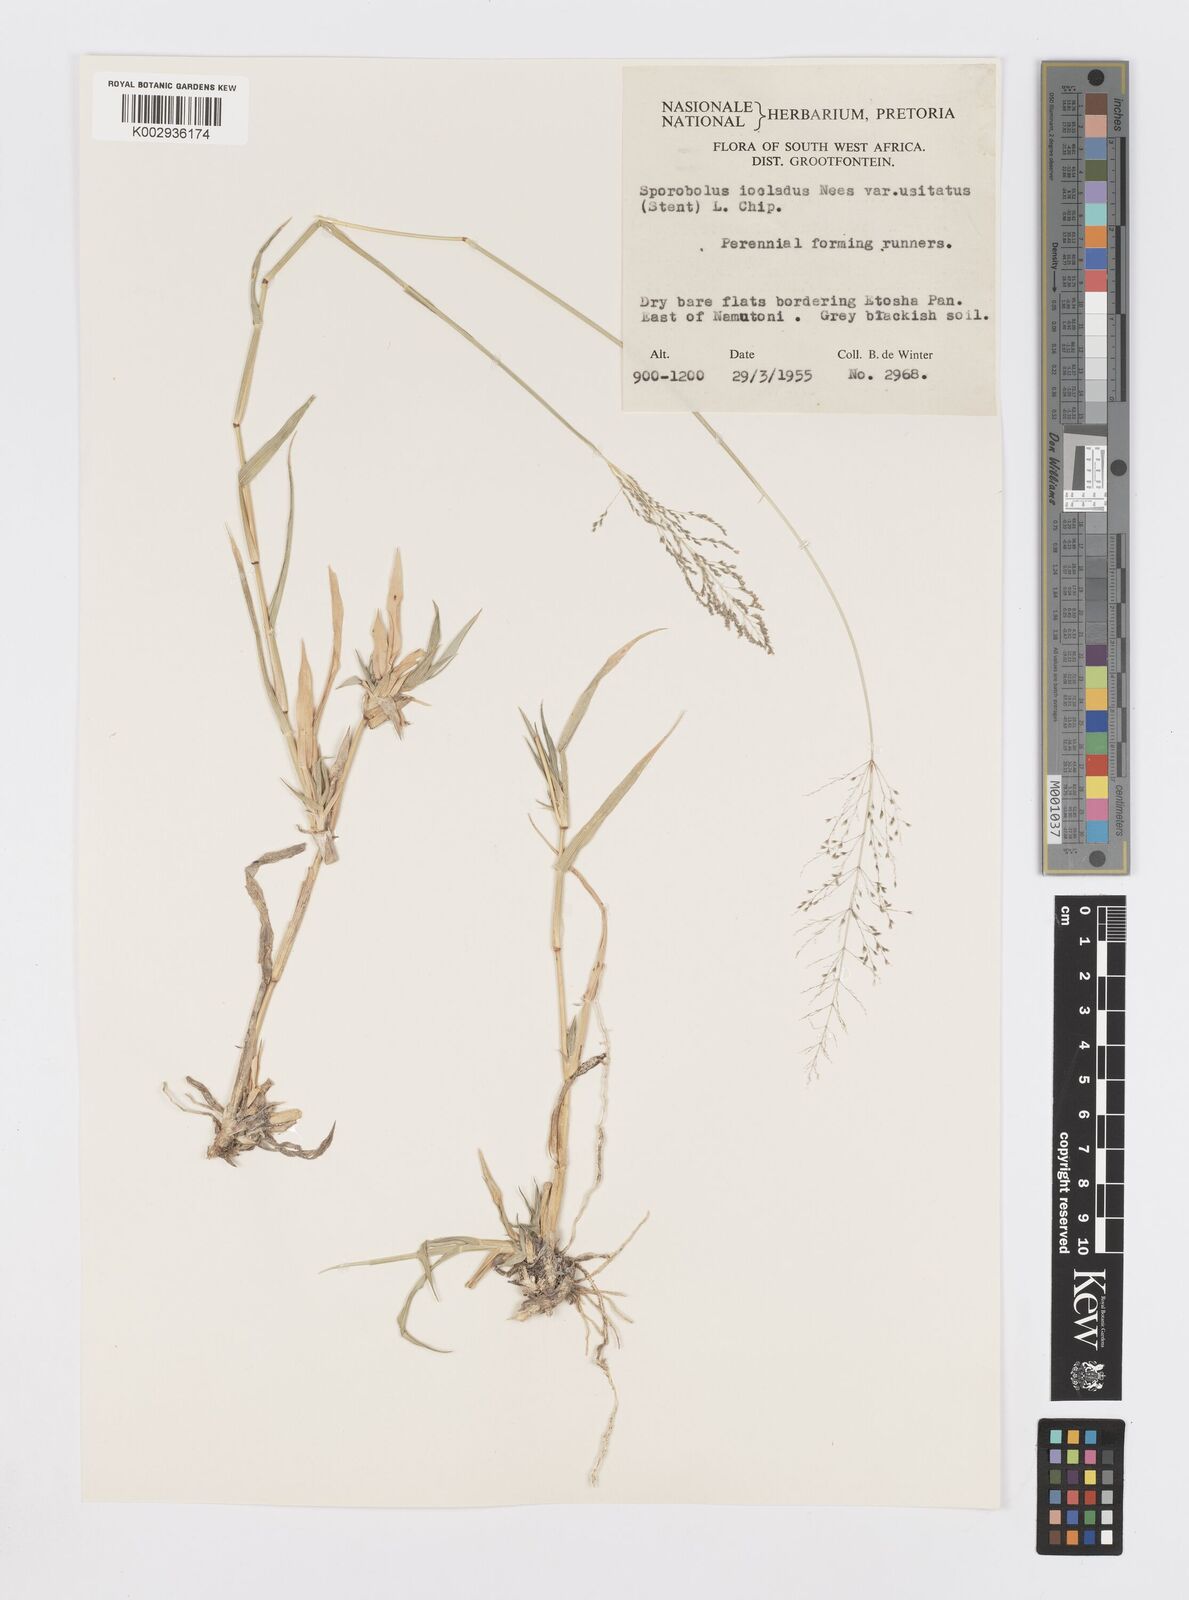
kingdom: Plantae
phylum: Tracheophyta
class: Liliopsida
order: Poales
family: Poaceae
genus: Sporobolus
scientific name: Sporobolus ioclados
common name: Pan dropseed
